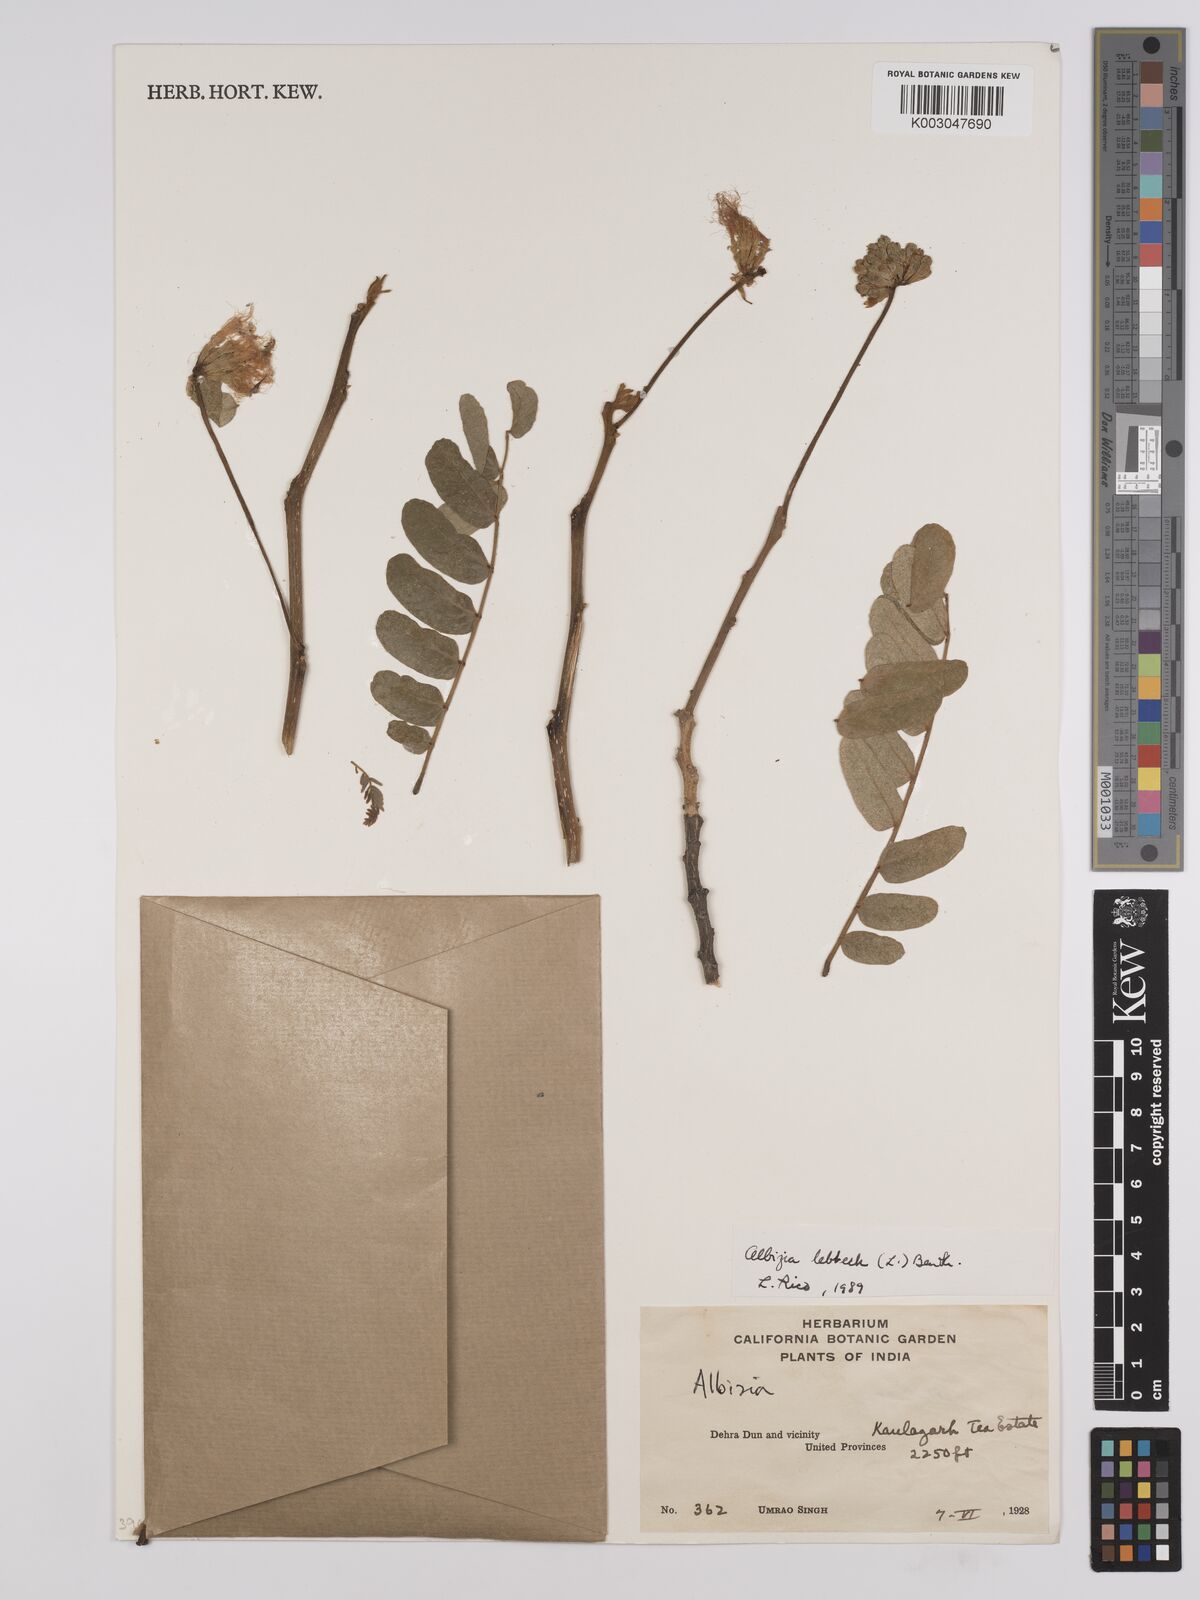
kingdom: Plantae
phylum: Tracheophyta
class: Magnoliopsida
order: Fabales
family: Fabaceae
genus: Albizia
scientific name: Albizia lebbeck
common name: Woman's tongue
